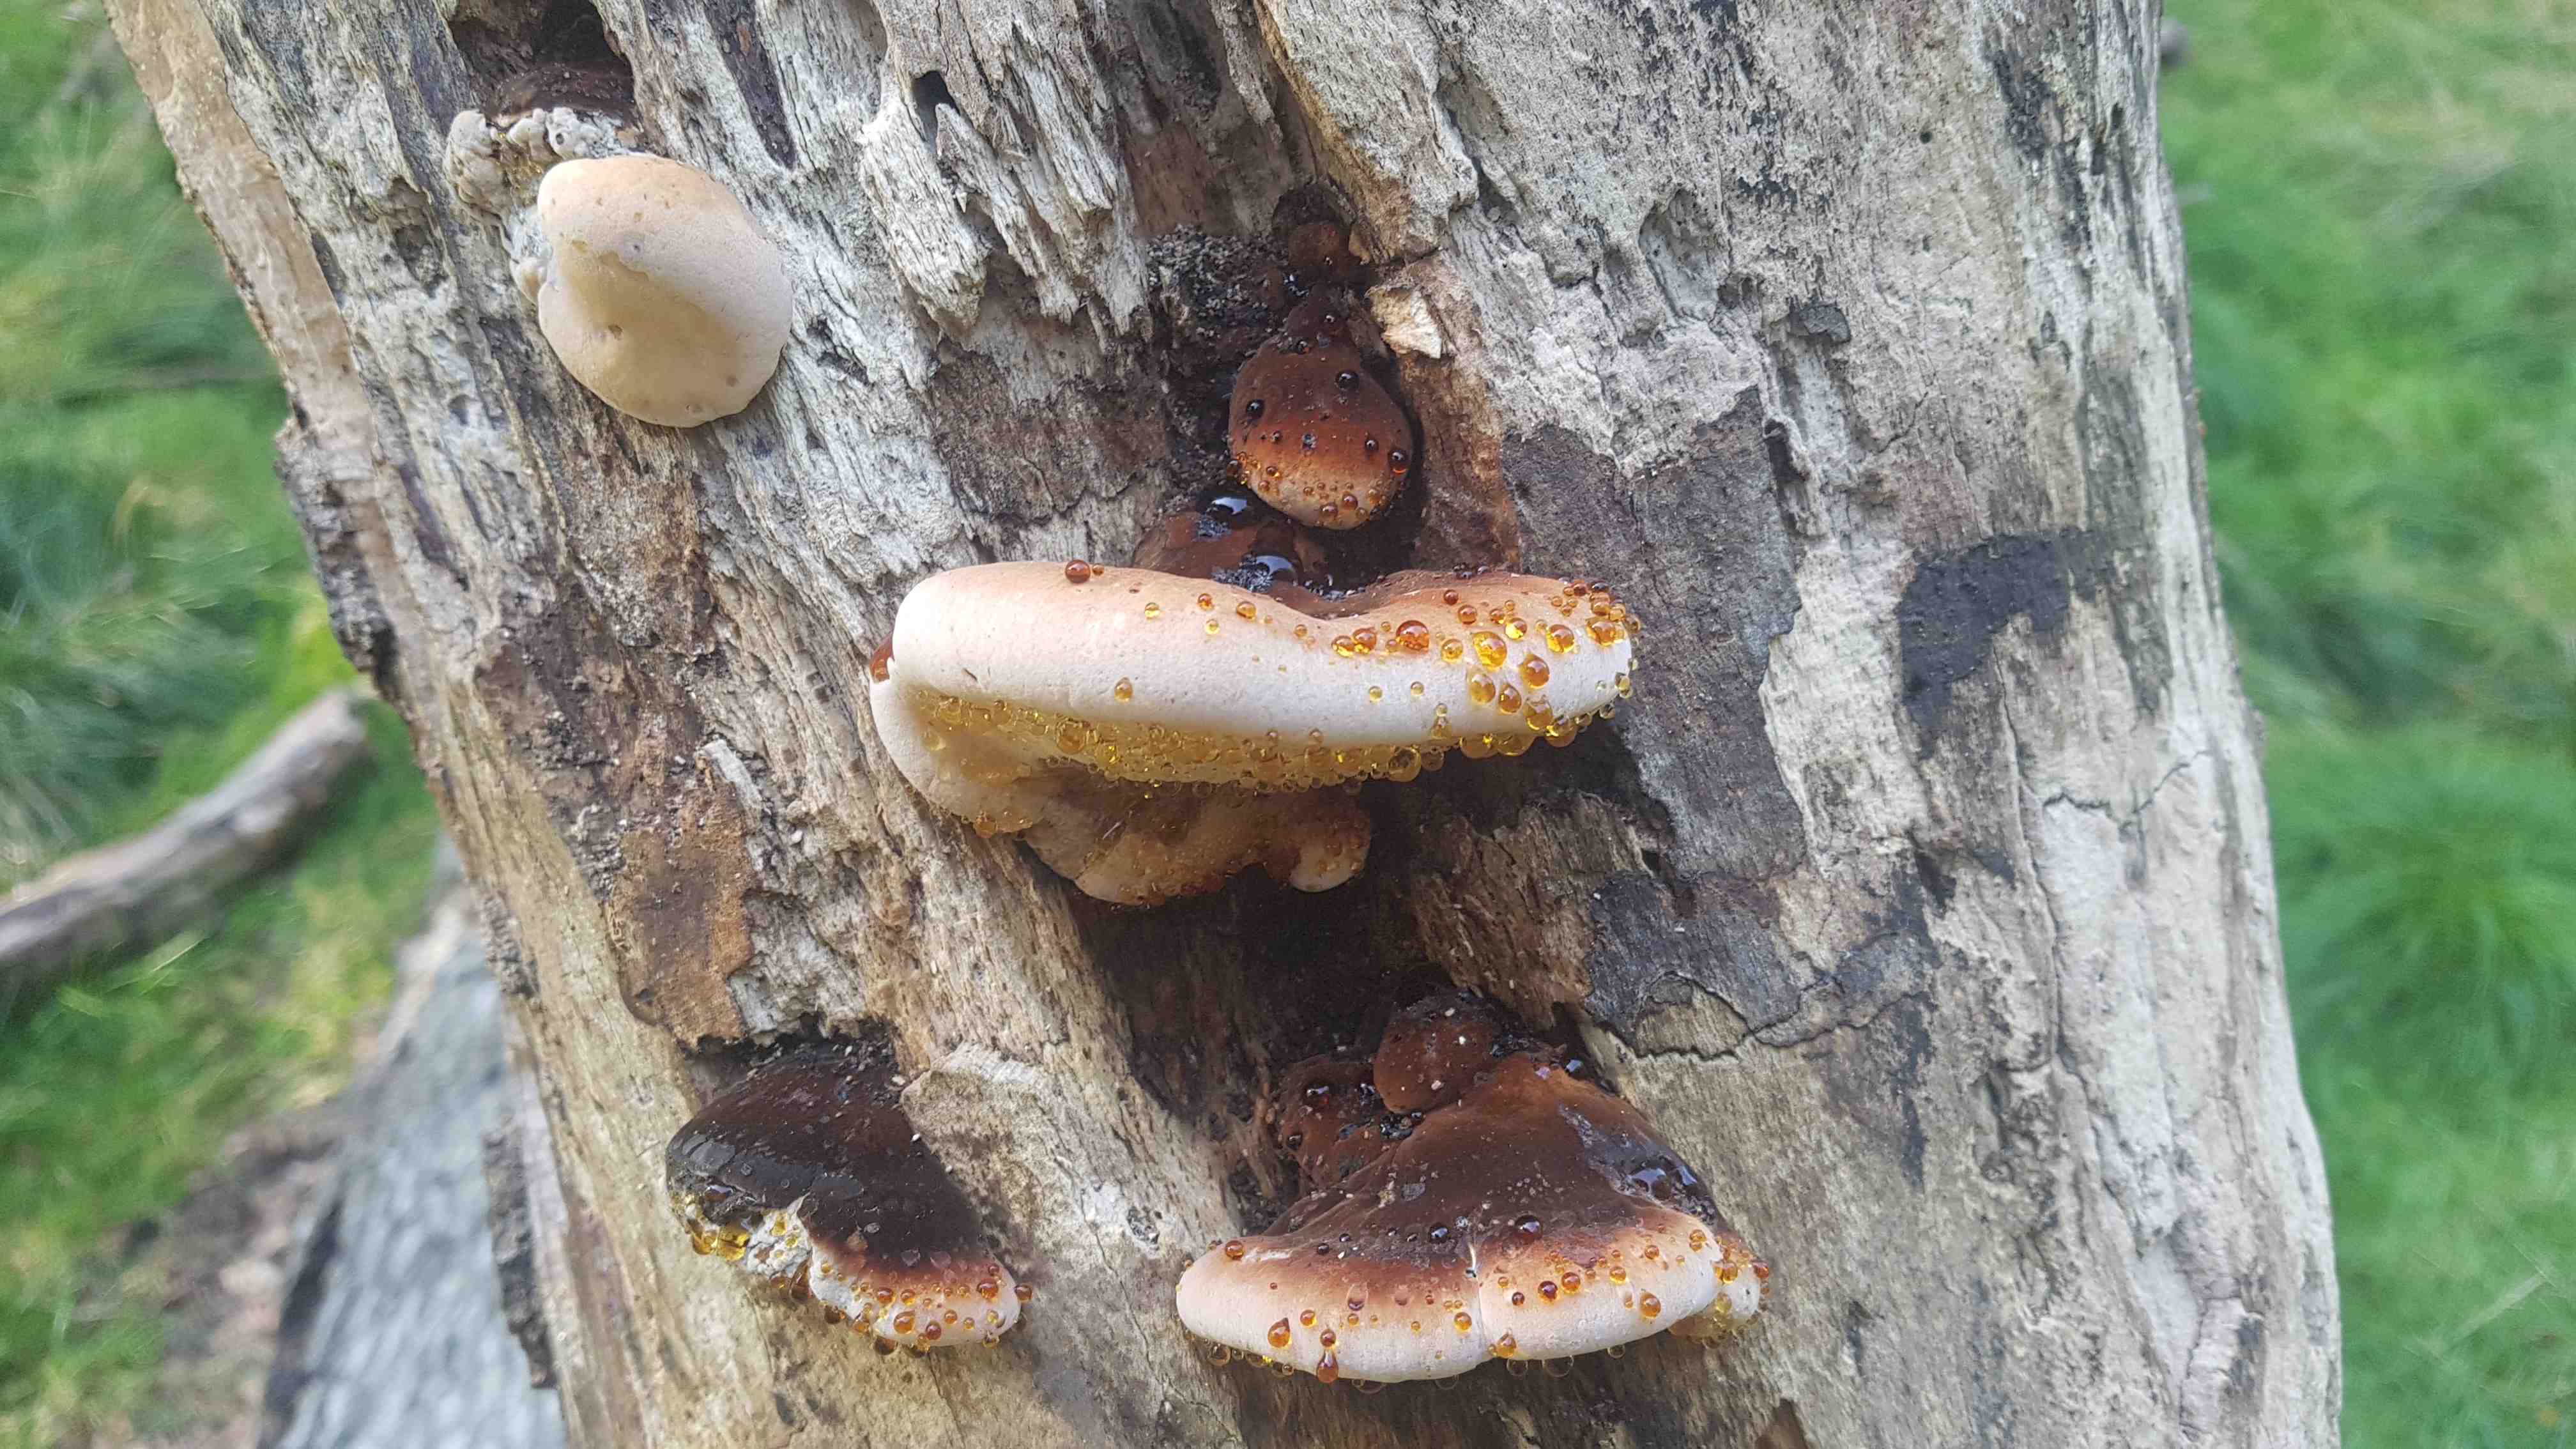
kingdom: Fungi
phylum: Basidiomycota
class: Agaricomycetes
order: Polyporales
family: Ischnodermataceae
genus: Ischnoderma
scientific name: Ischnoderma resinosum
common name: løv-tjæreporesvamp
